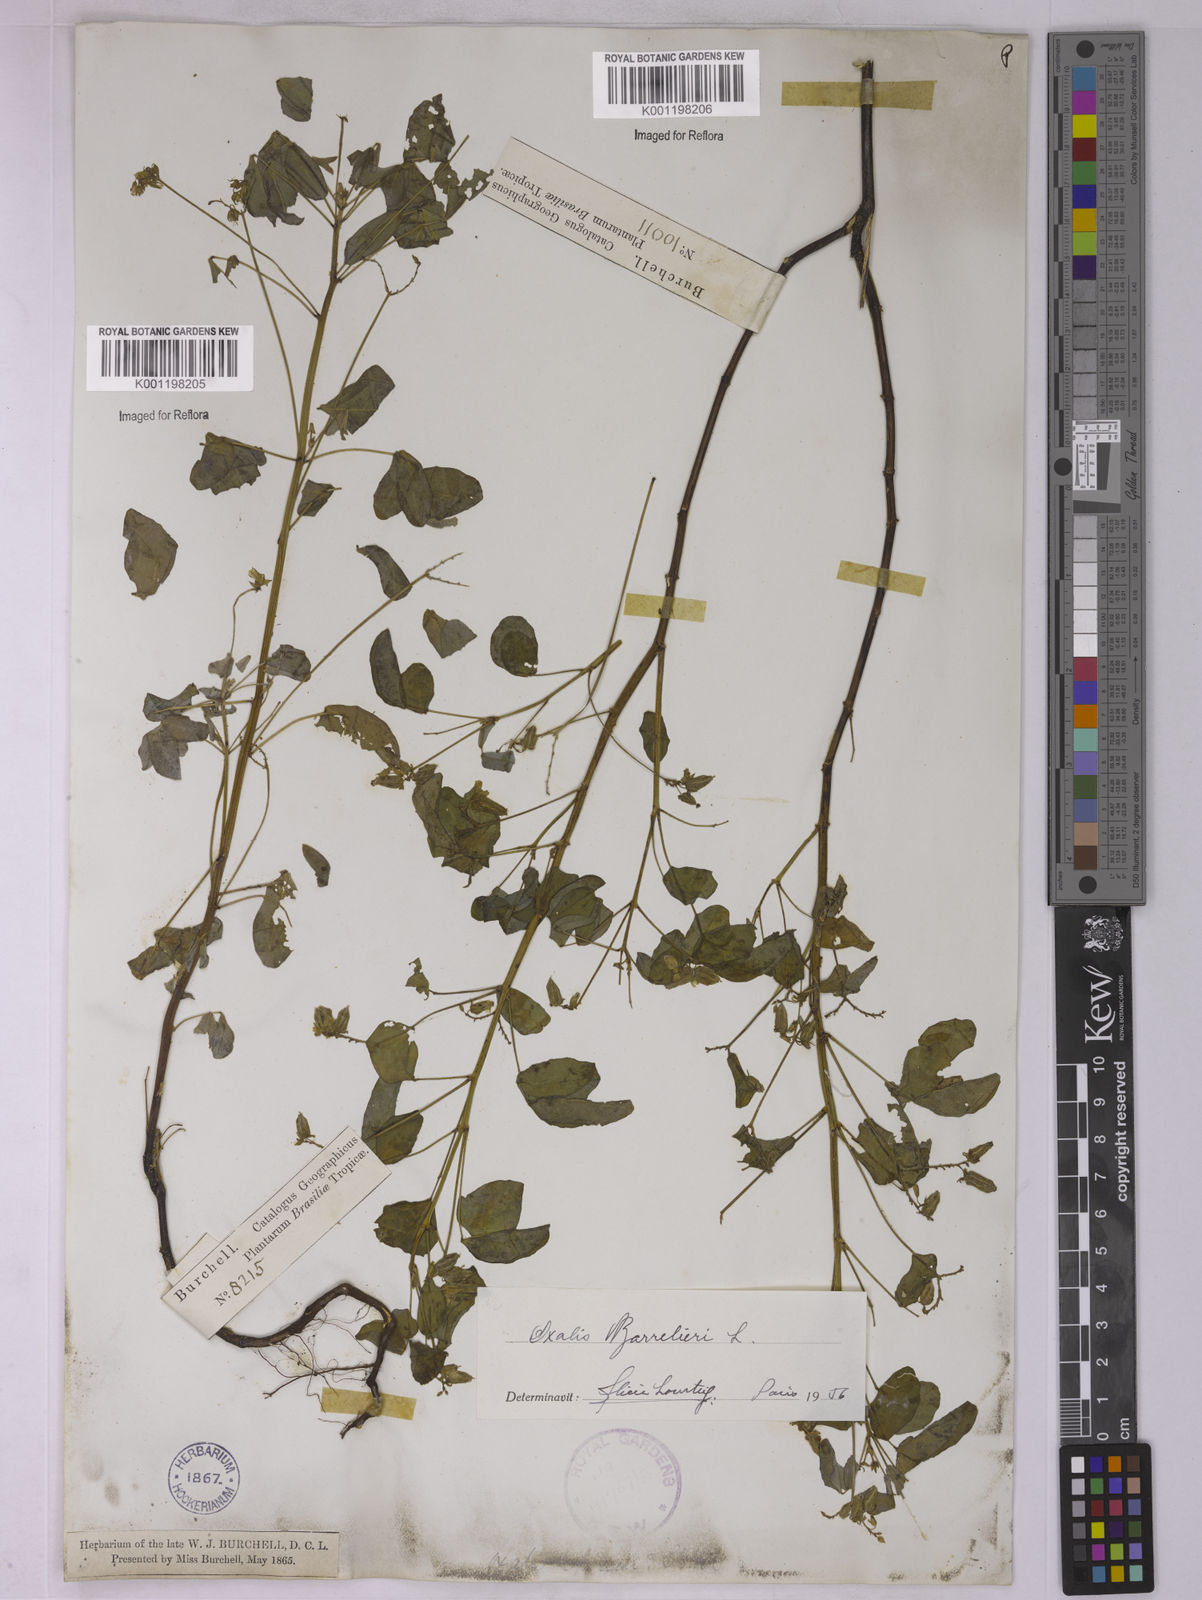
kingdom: Plantae
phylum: Tracheophyta
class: Magnoliopsida
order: Oxalidales
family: Oxalidaceae
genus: Oxalis
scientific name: Oxalis barrelieri
